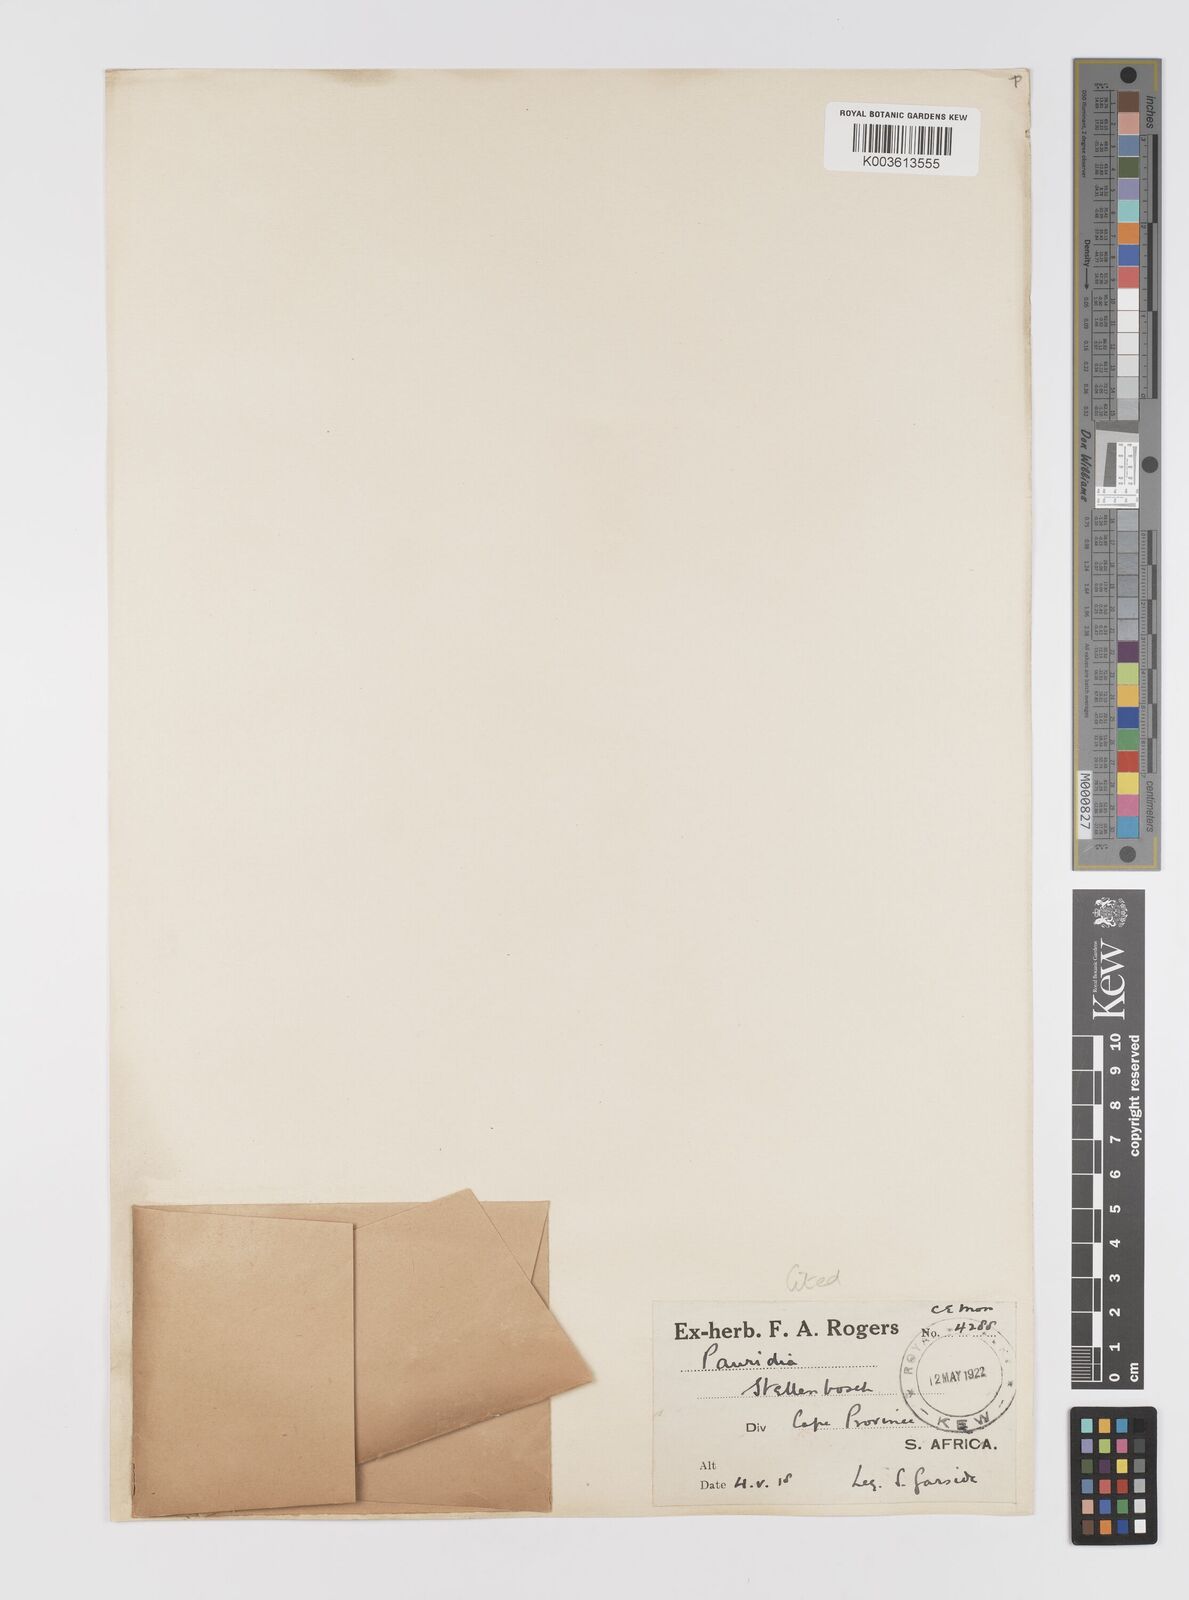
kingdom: Plantae
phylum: Tracheophyta
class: Liliopsida
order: Asparagales
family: Hypoxidaceae
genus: Pauridia
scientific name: Pauridia minuta
